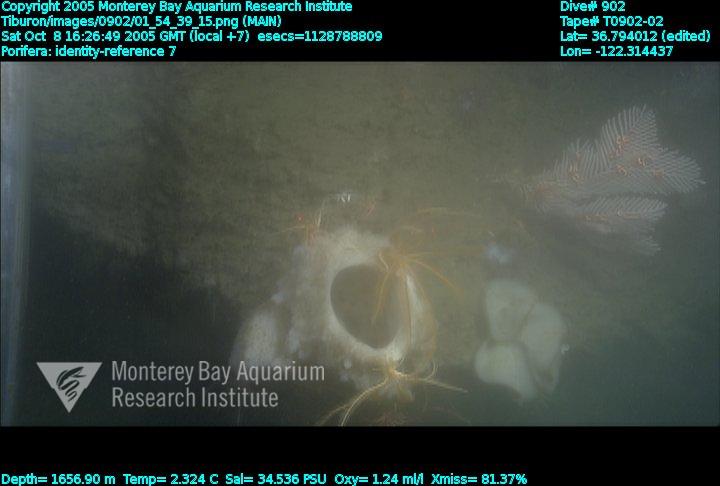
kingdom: Animalia
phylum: Porifera
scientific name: Porifera
